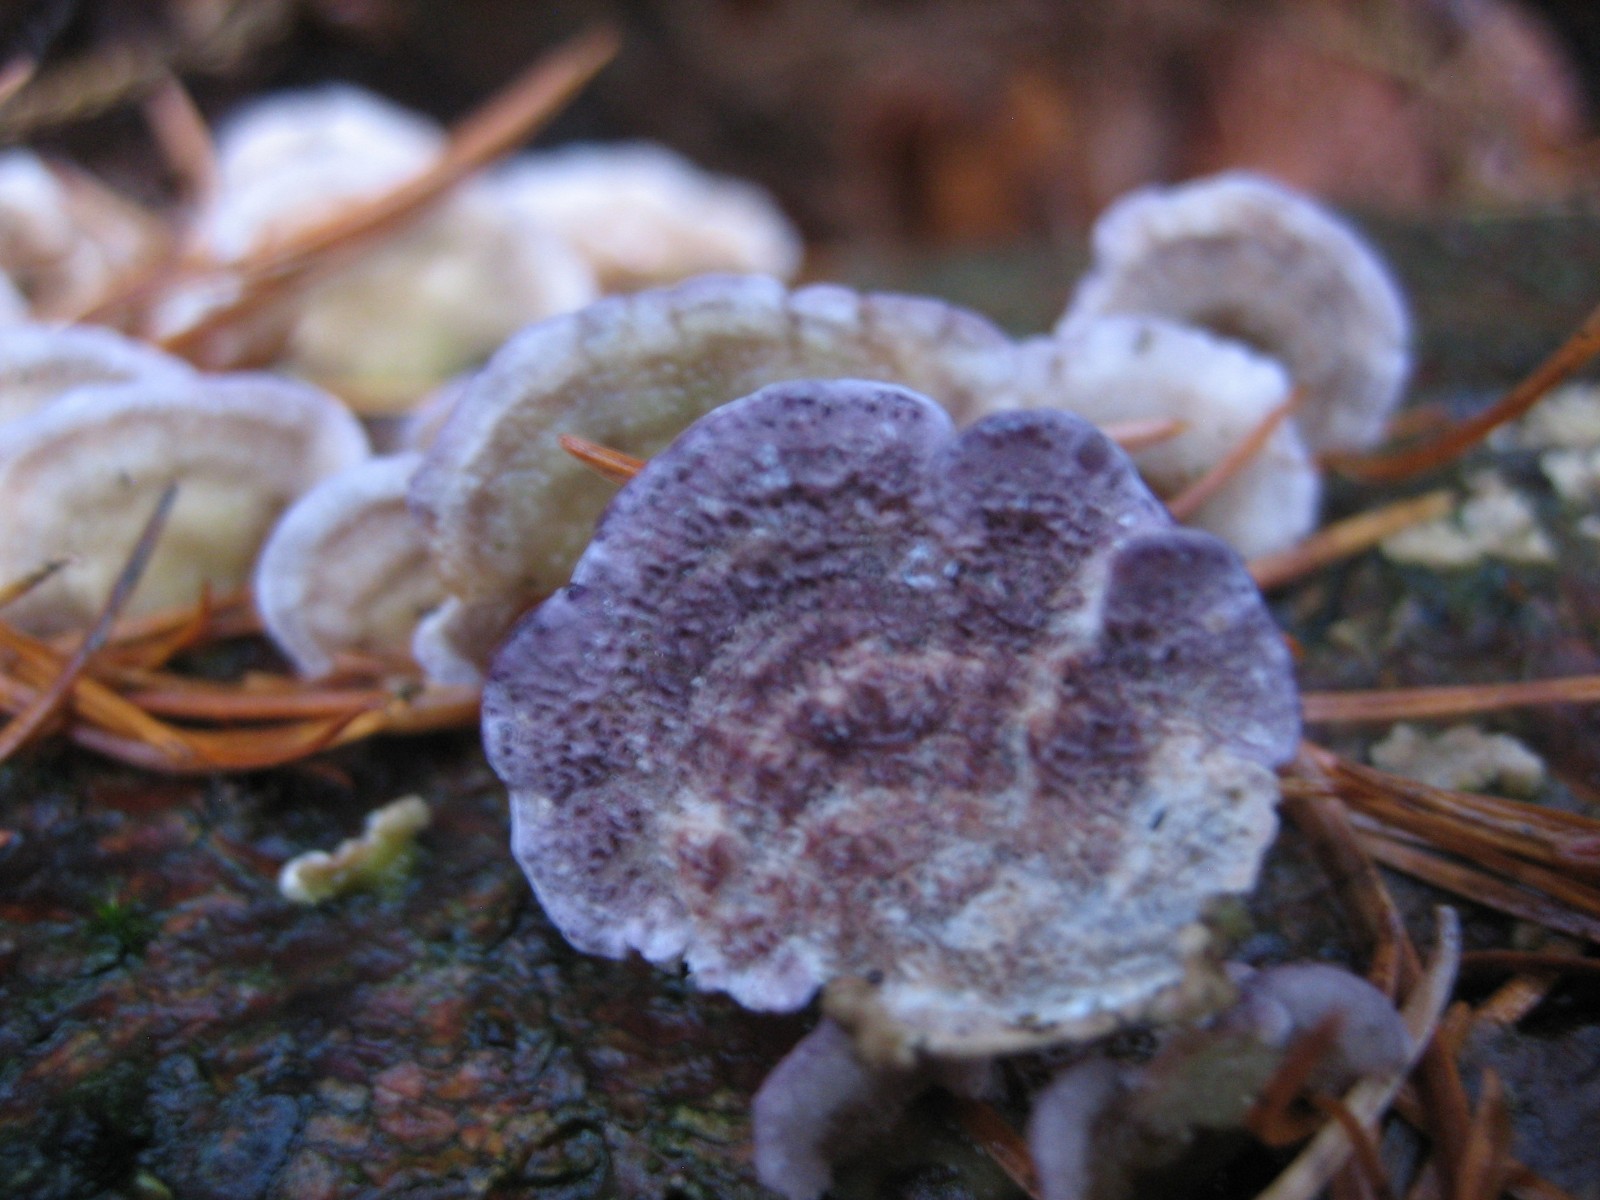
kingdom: Fungi
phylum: Basidiomycota
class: Agaricomycetes
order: Hymenochaetales
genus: Trichaptum
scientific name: Trichaptum abietinum
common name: almindelig violporesvamp
